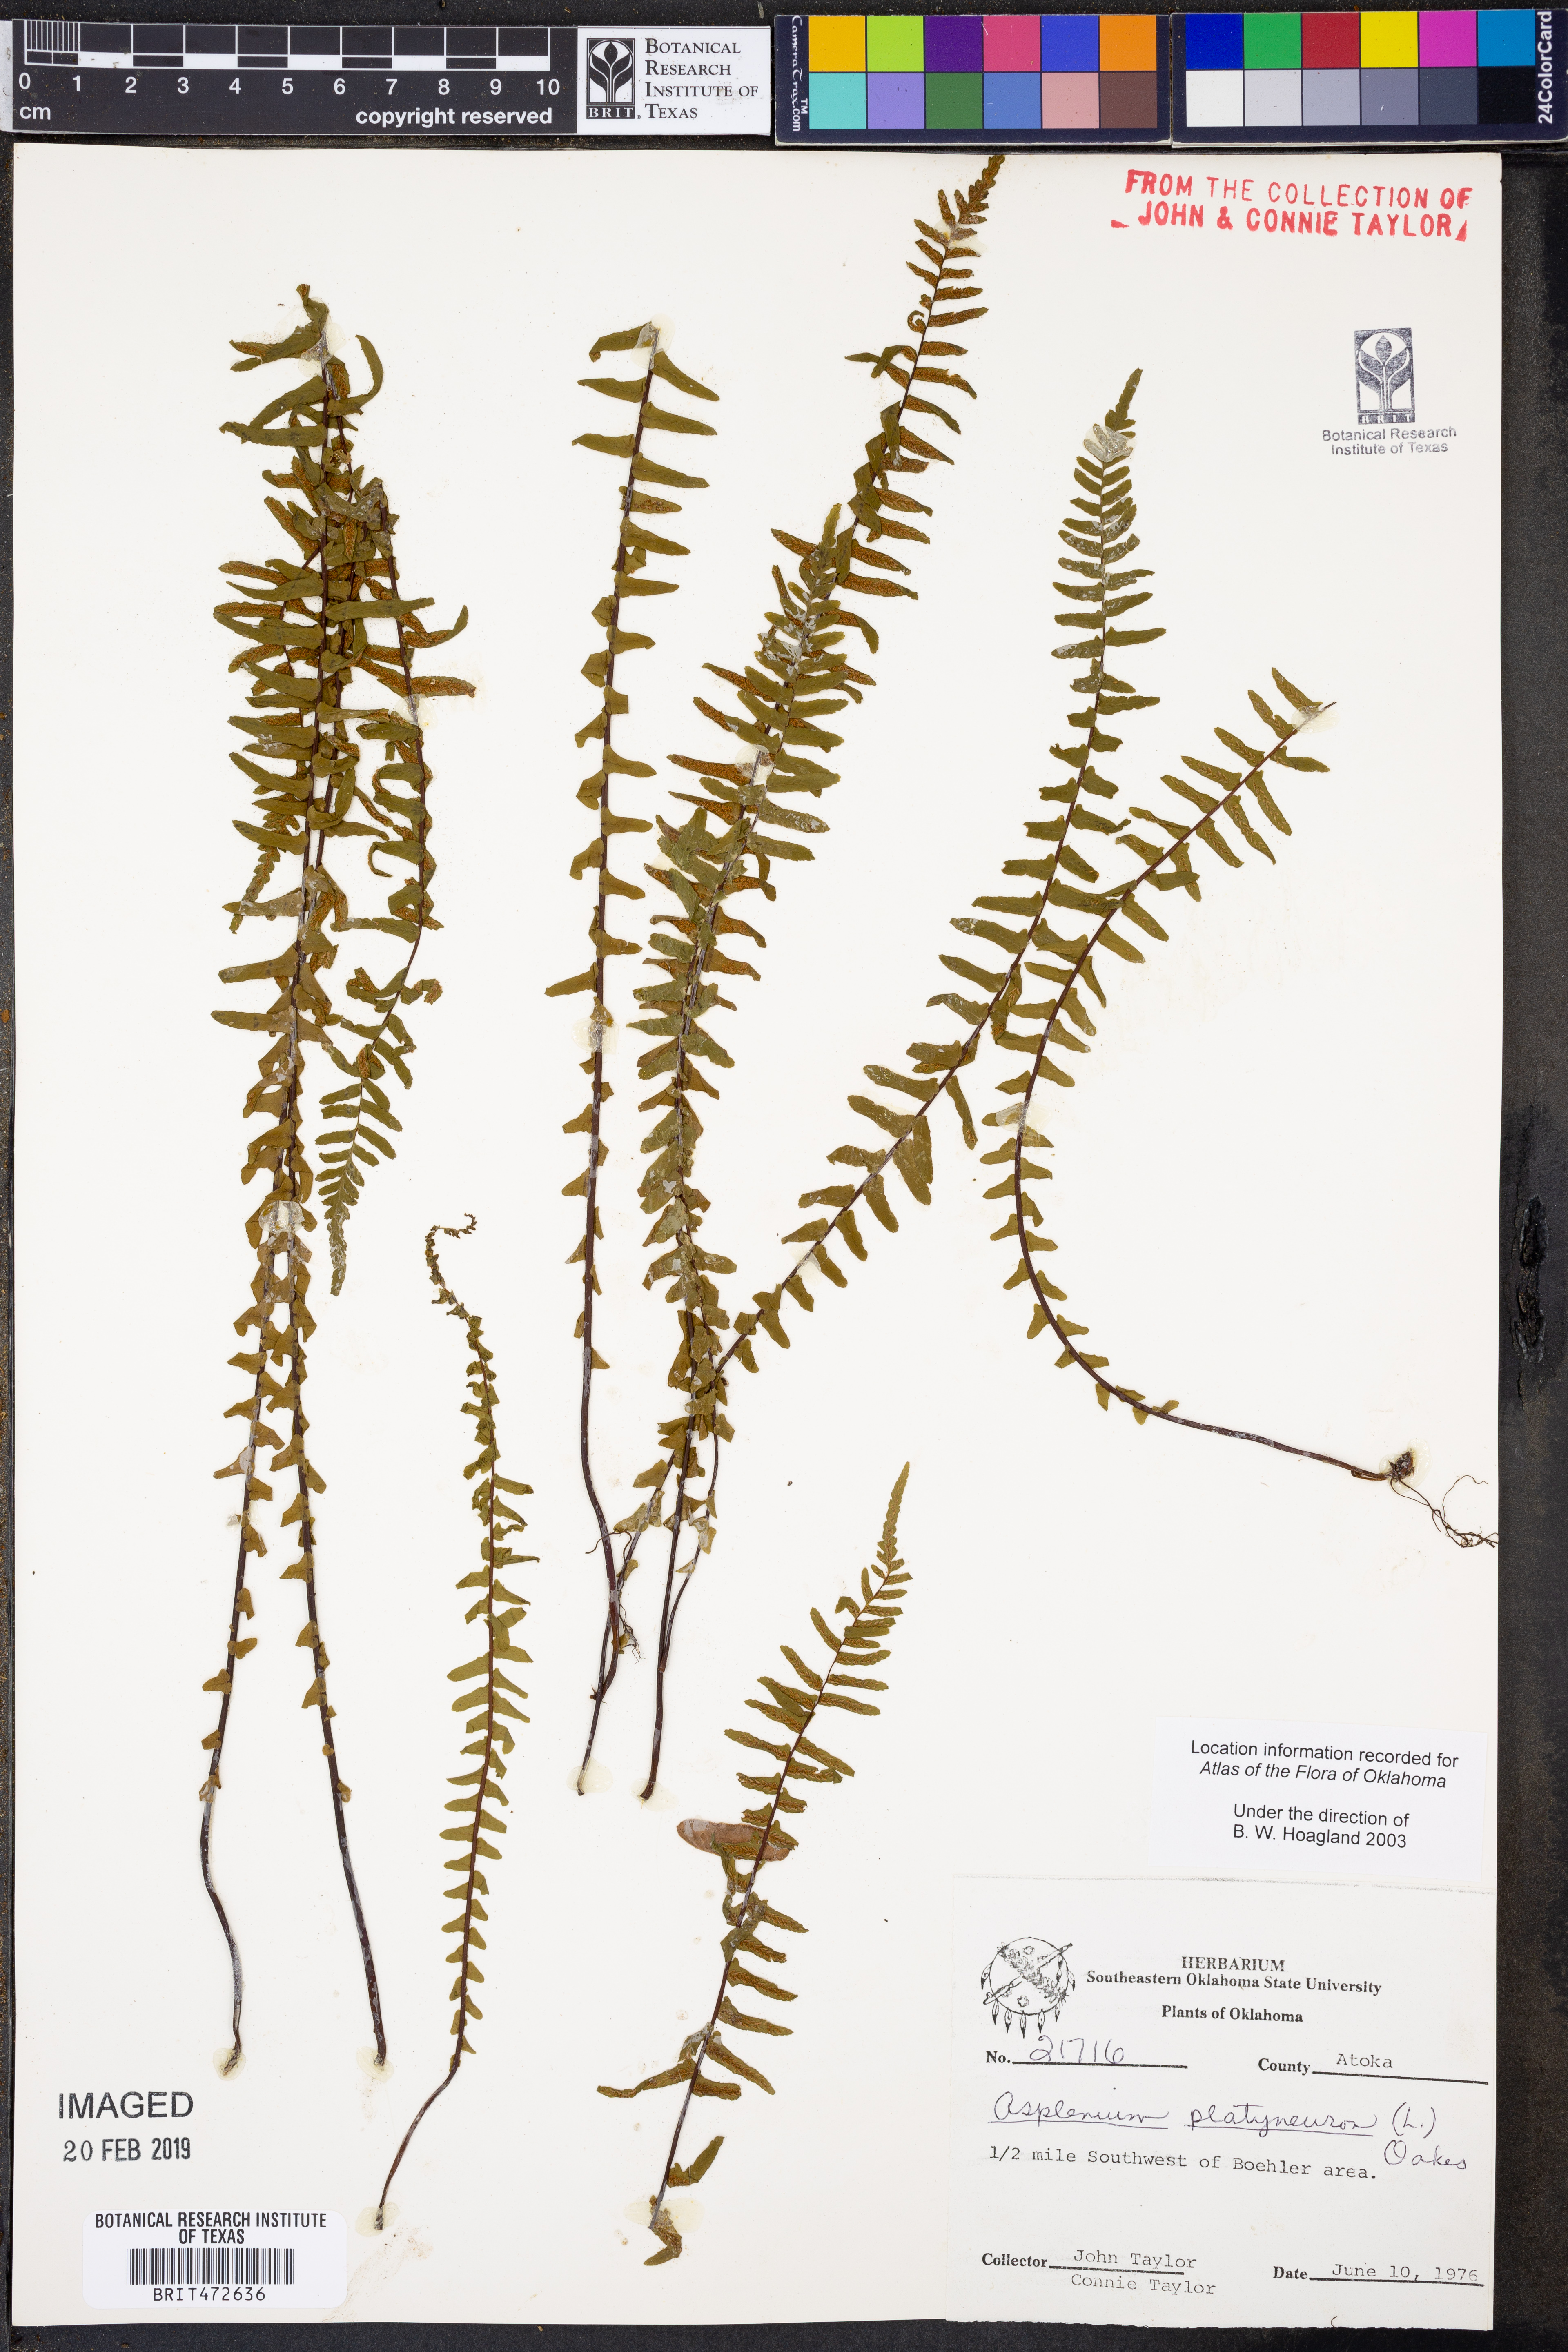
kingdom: Plantae
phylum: Tracheophyta
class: Polypodiopsida
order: Polypodiales
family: Aspleniaceae
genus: Asplenium
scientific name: Asplenium platyneuron
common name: Ebony spleenwort
